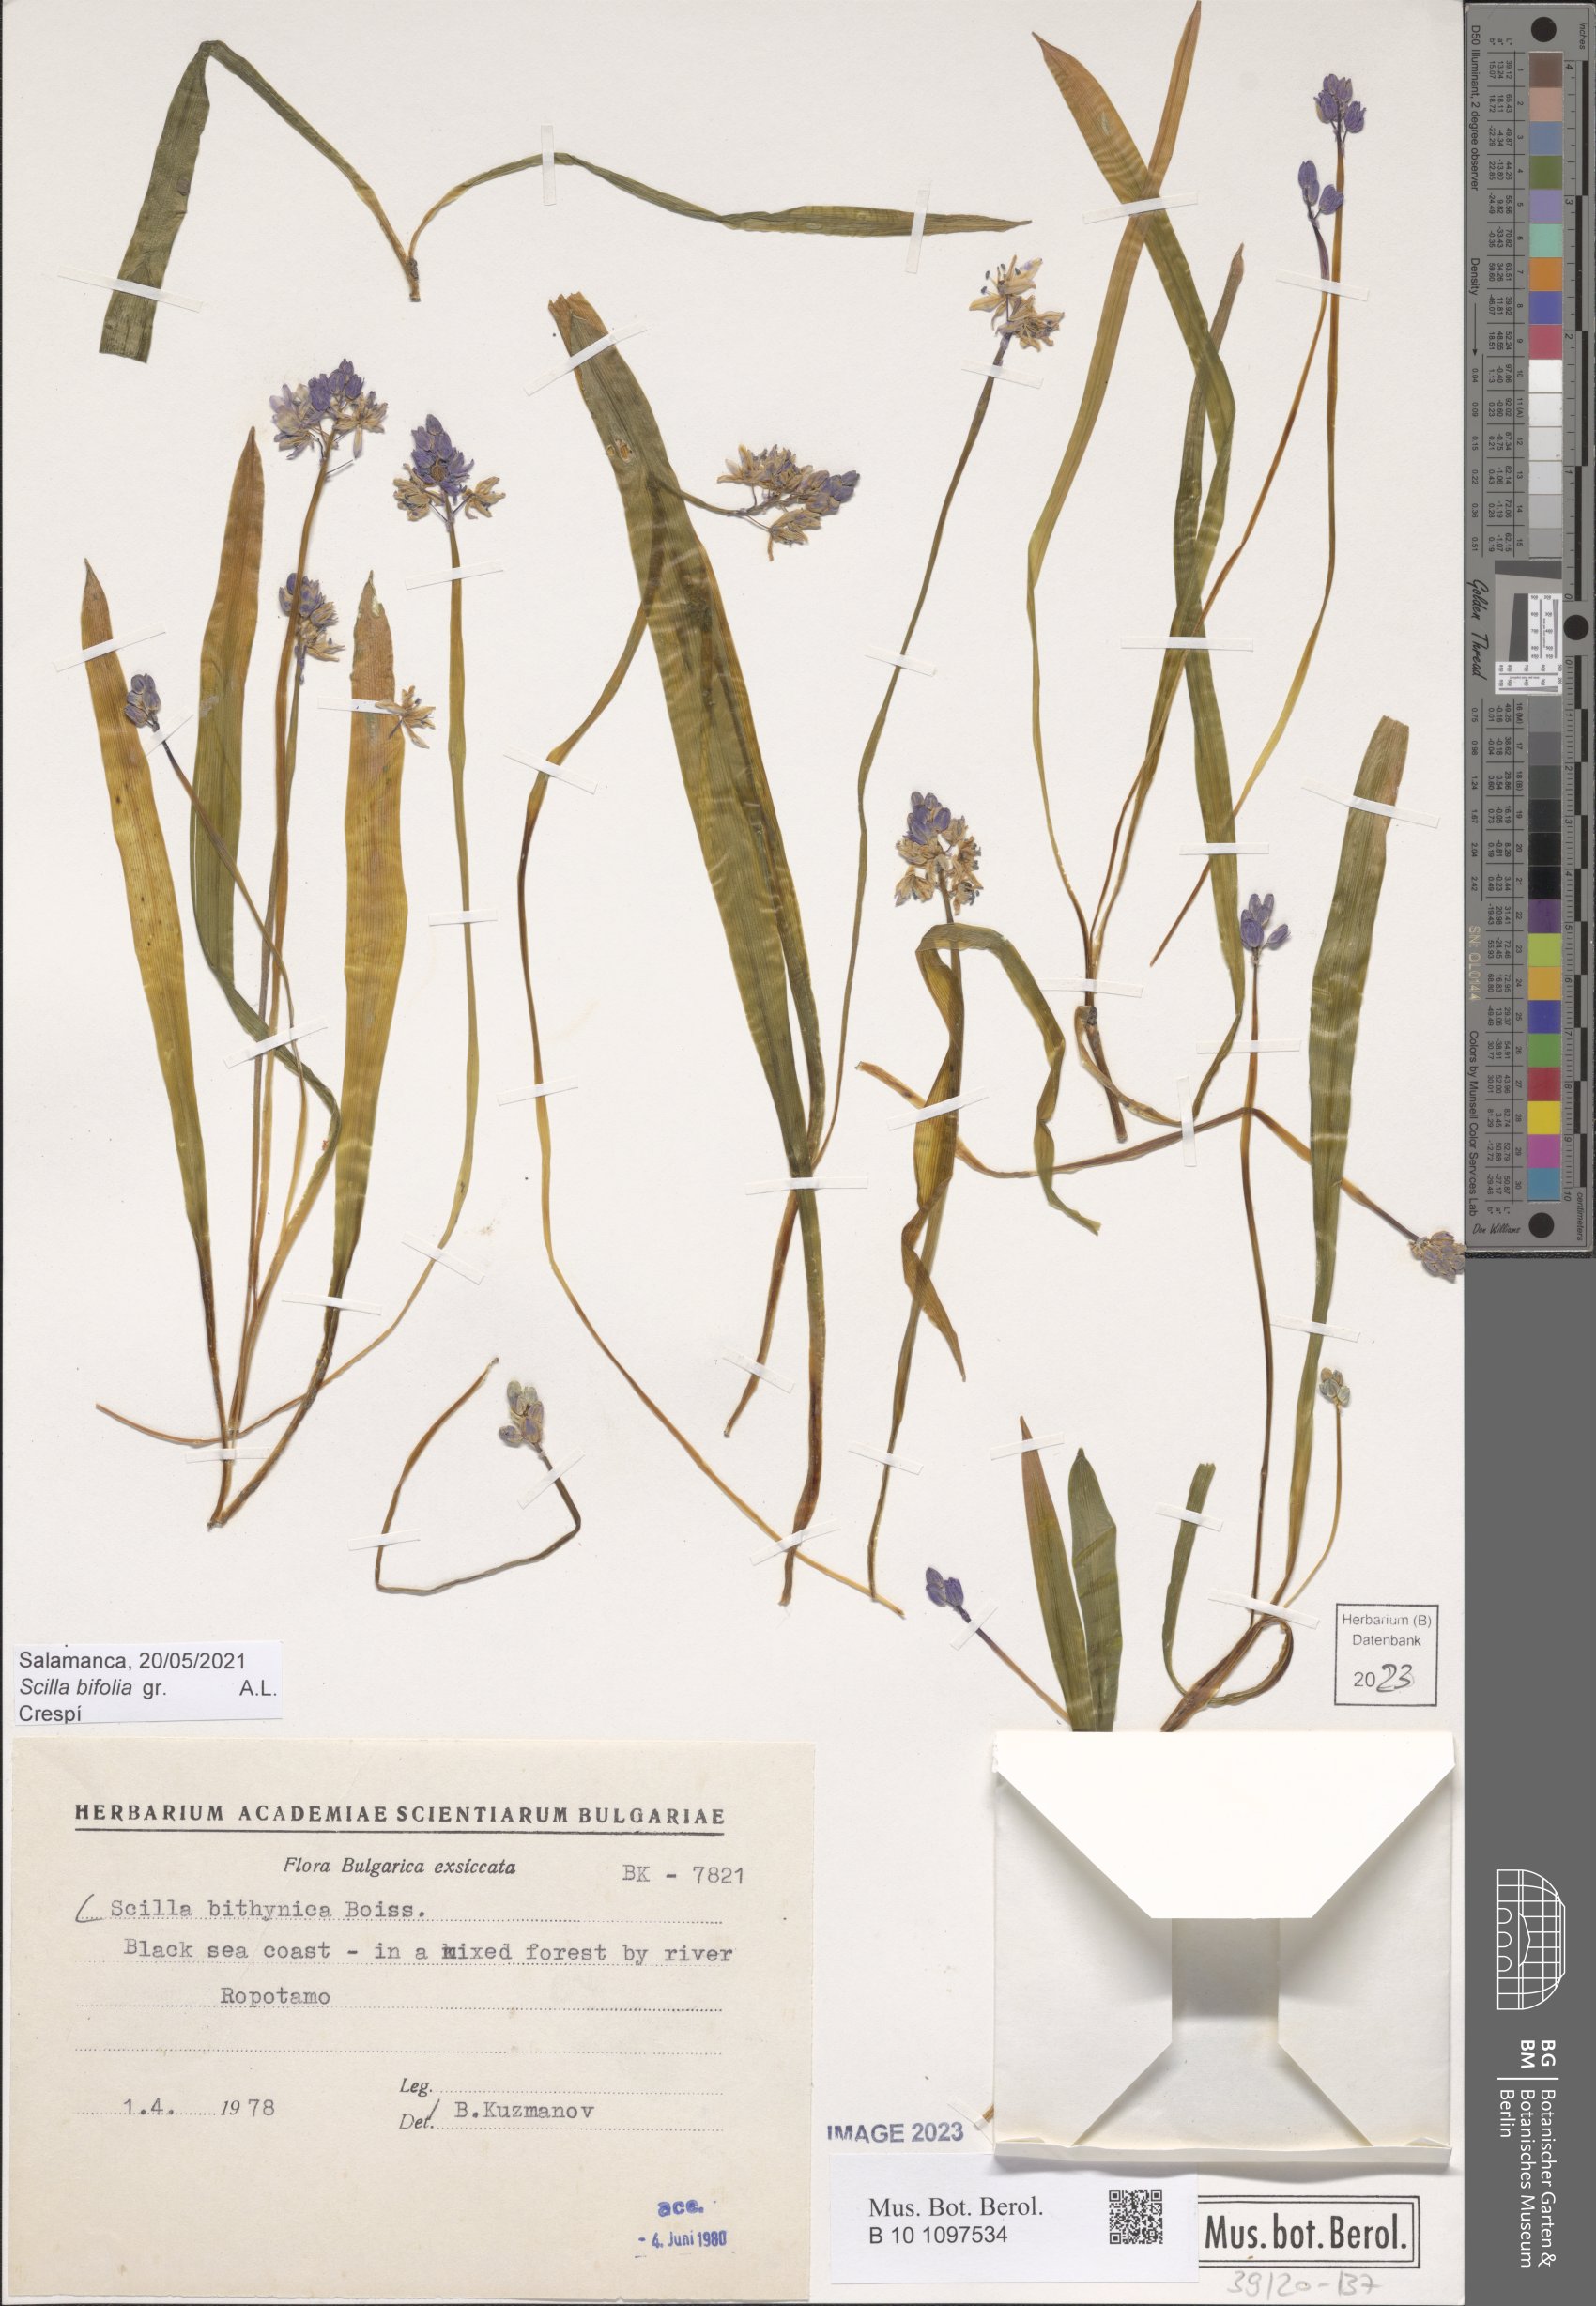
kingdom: Plantae
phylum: Tracheophyta
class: Liliopsida
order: Asparagales
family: Asparagaceae
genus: Scilla
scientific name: Scilla bithynica
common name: Turkish squill
